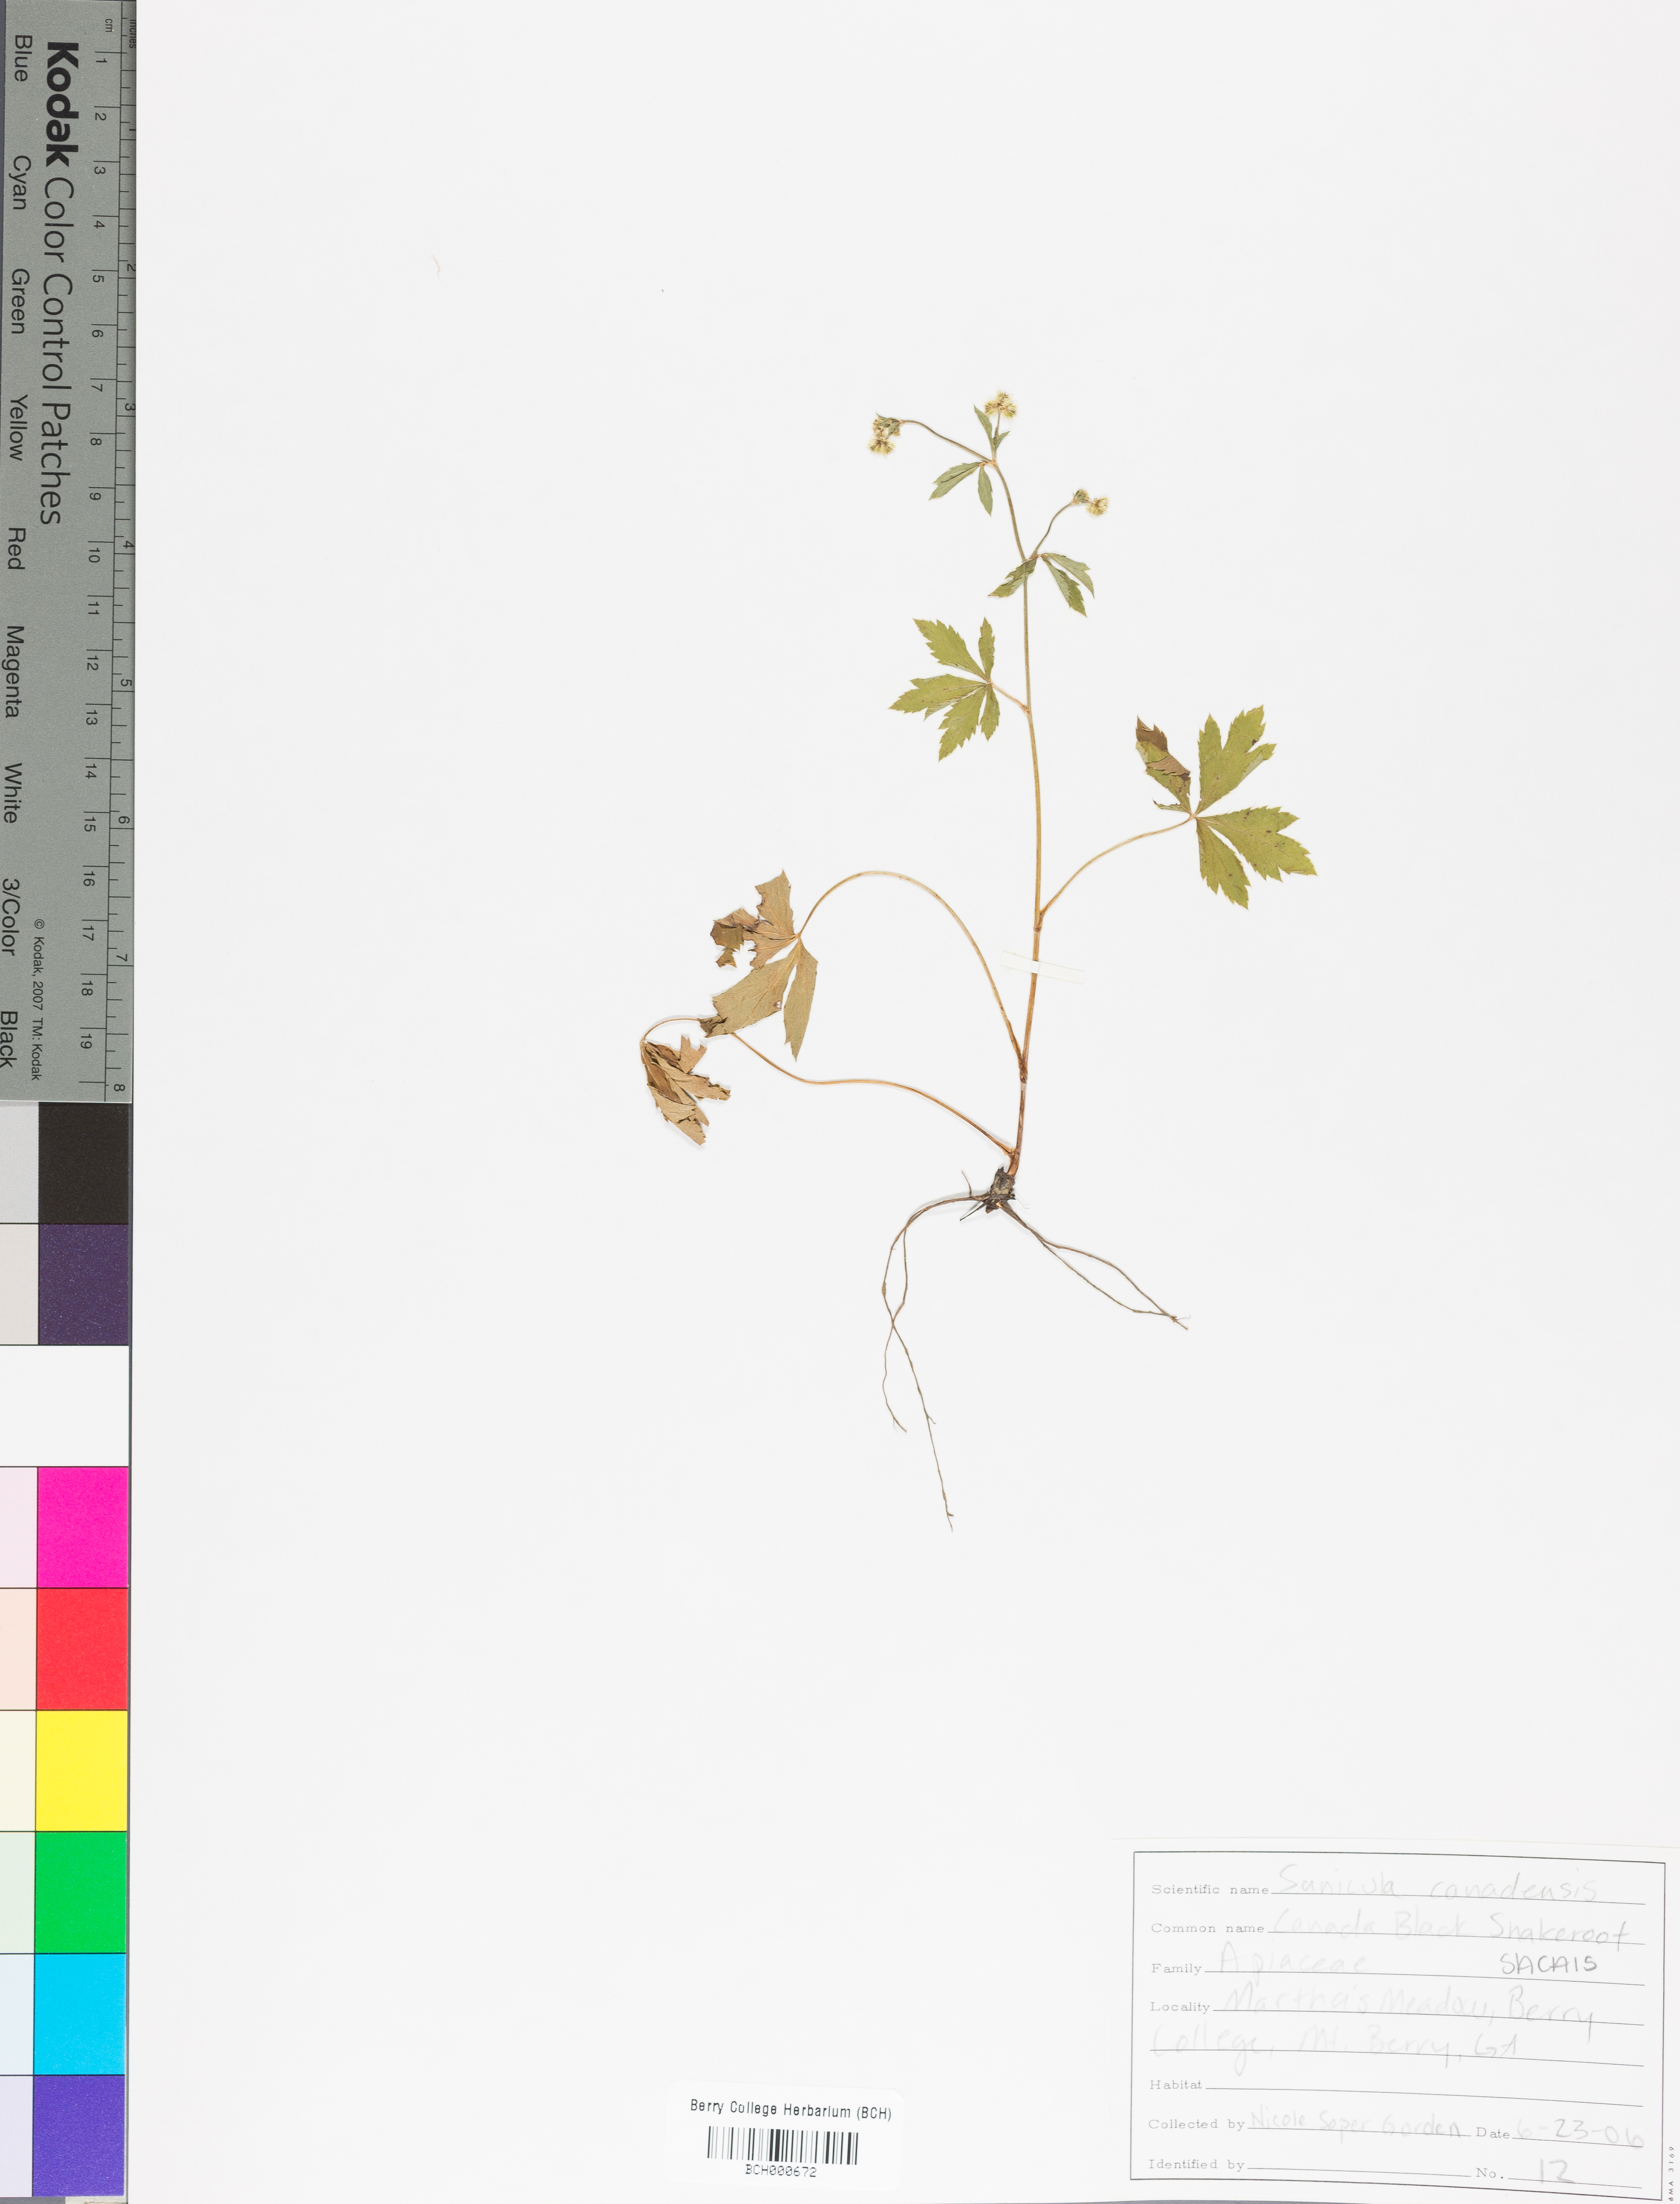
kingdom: Plantae
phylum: Tracheophyta
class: Magnoliopsida
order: Apiales
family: Apiaceae
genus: Sanicula
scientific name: Sanicula canadensis
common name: Canada sanicle
